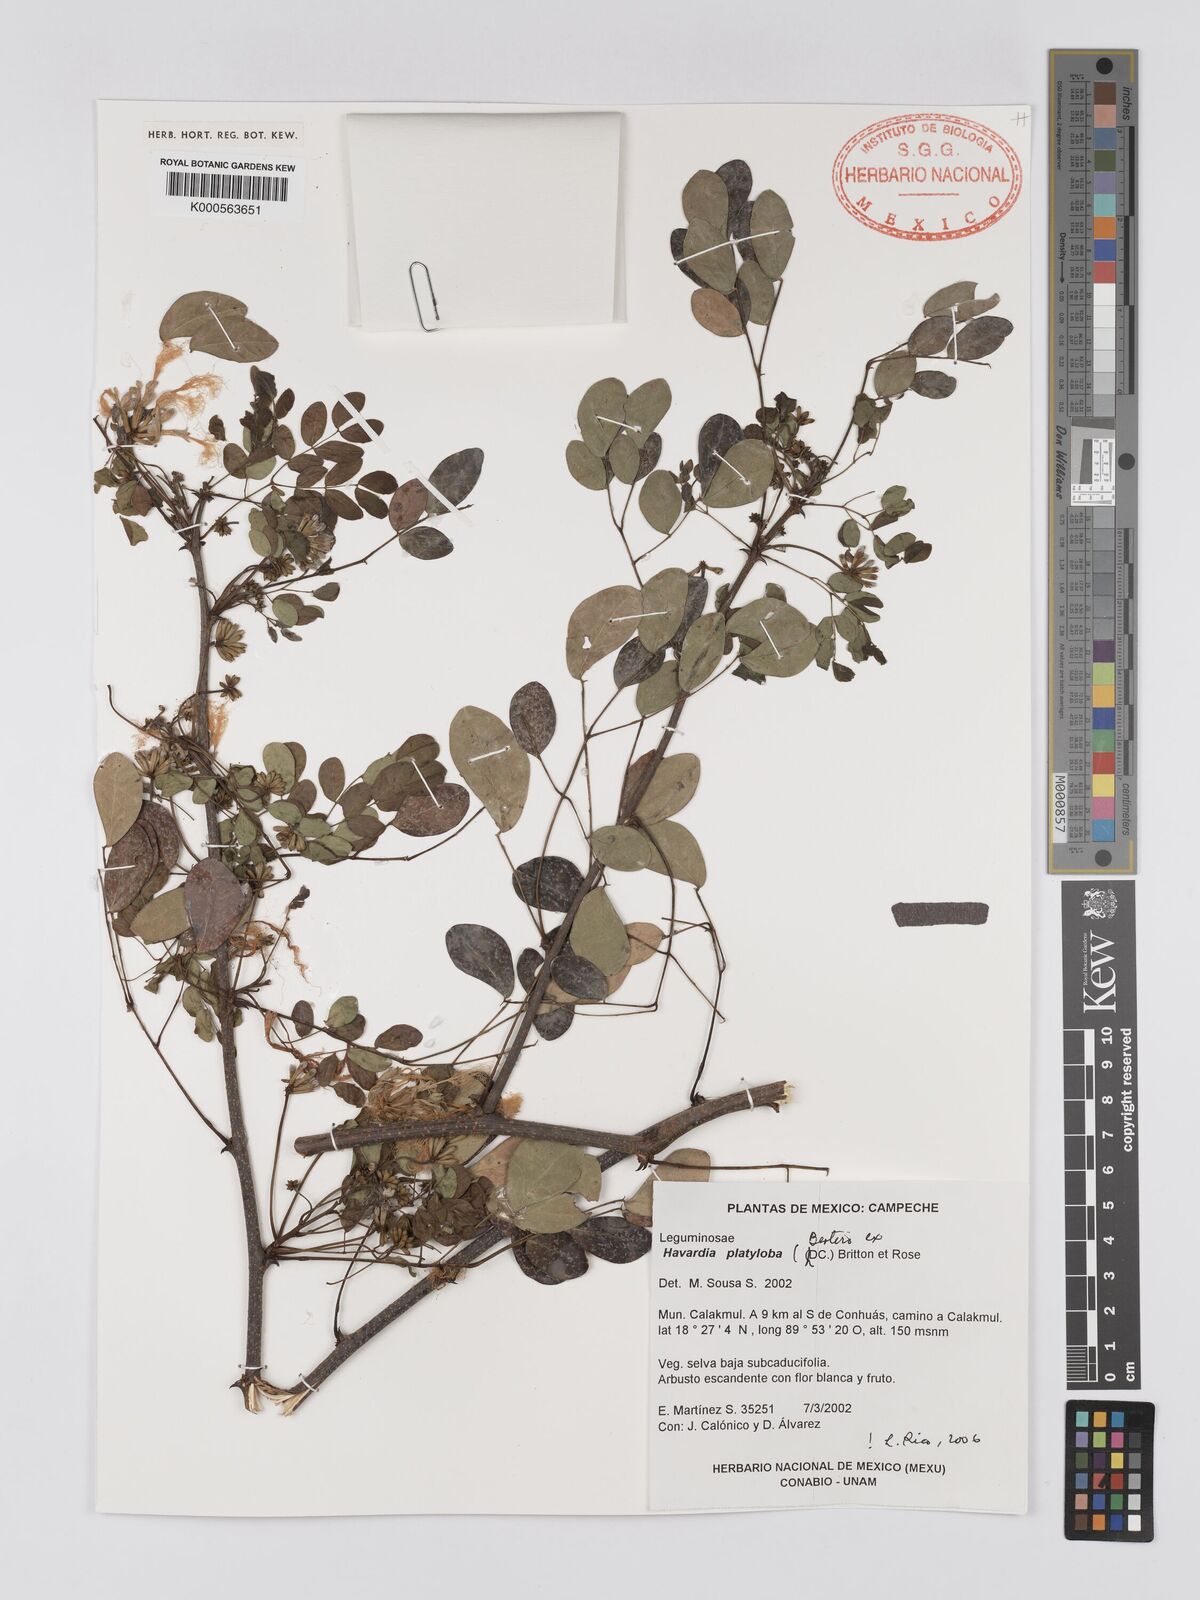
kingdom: Plantae
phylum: Tracheophyta
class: Magnoliopsida
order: Fabales
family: Fabaceae
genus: Havardia
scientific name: Havardia platyloba
